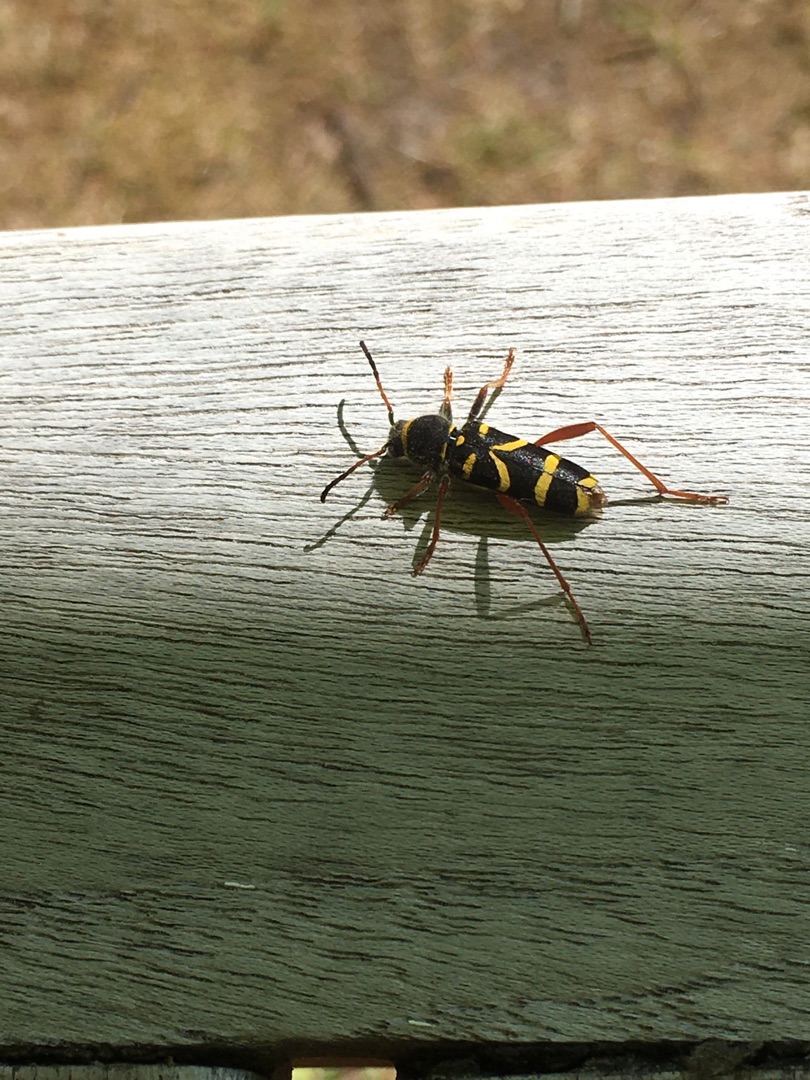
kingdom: Animalia
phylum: Arthropoda
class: Insecta
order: Coleoptera
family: Cerambycidae
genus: Clytus
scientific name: Clytus arietis
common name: Lille hvepsebuk
